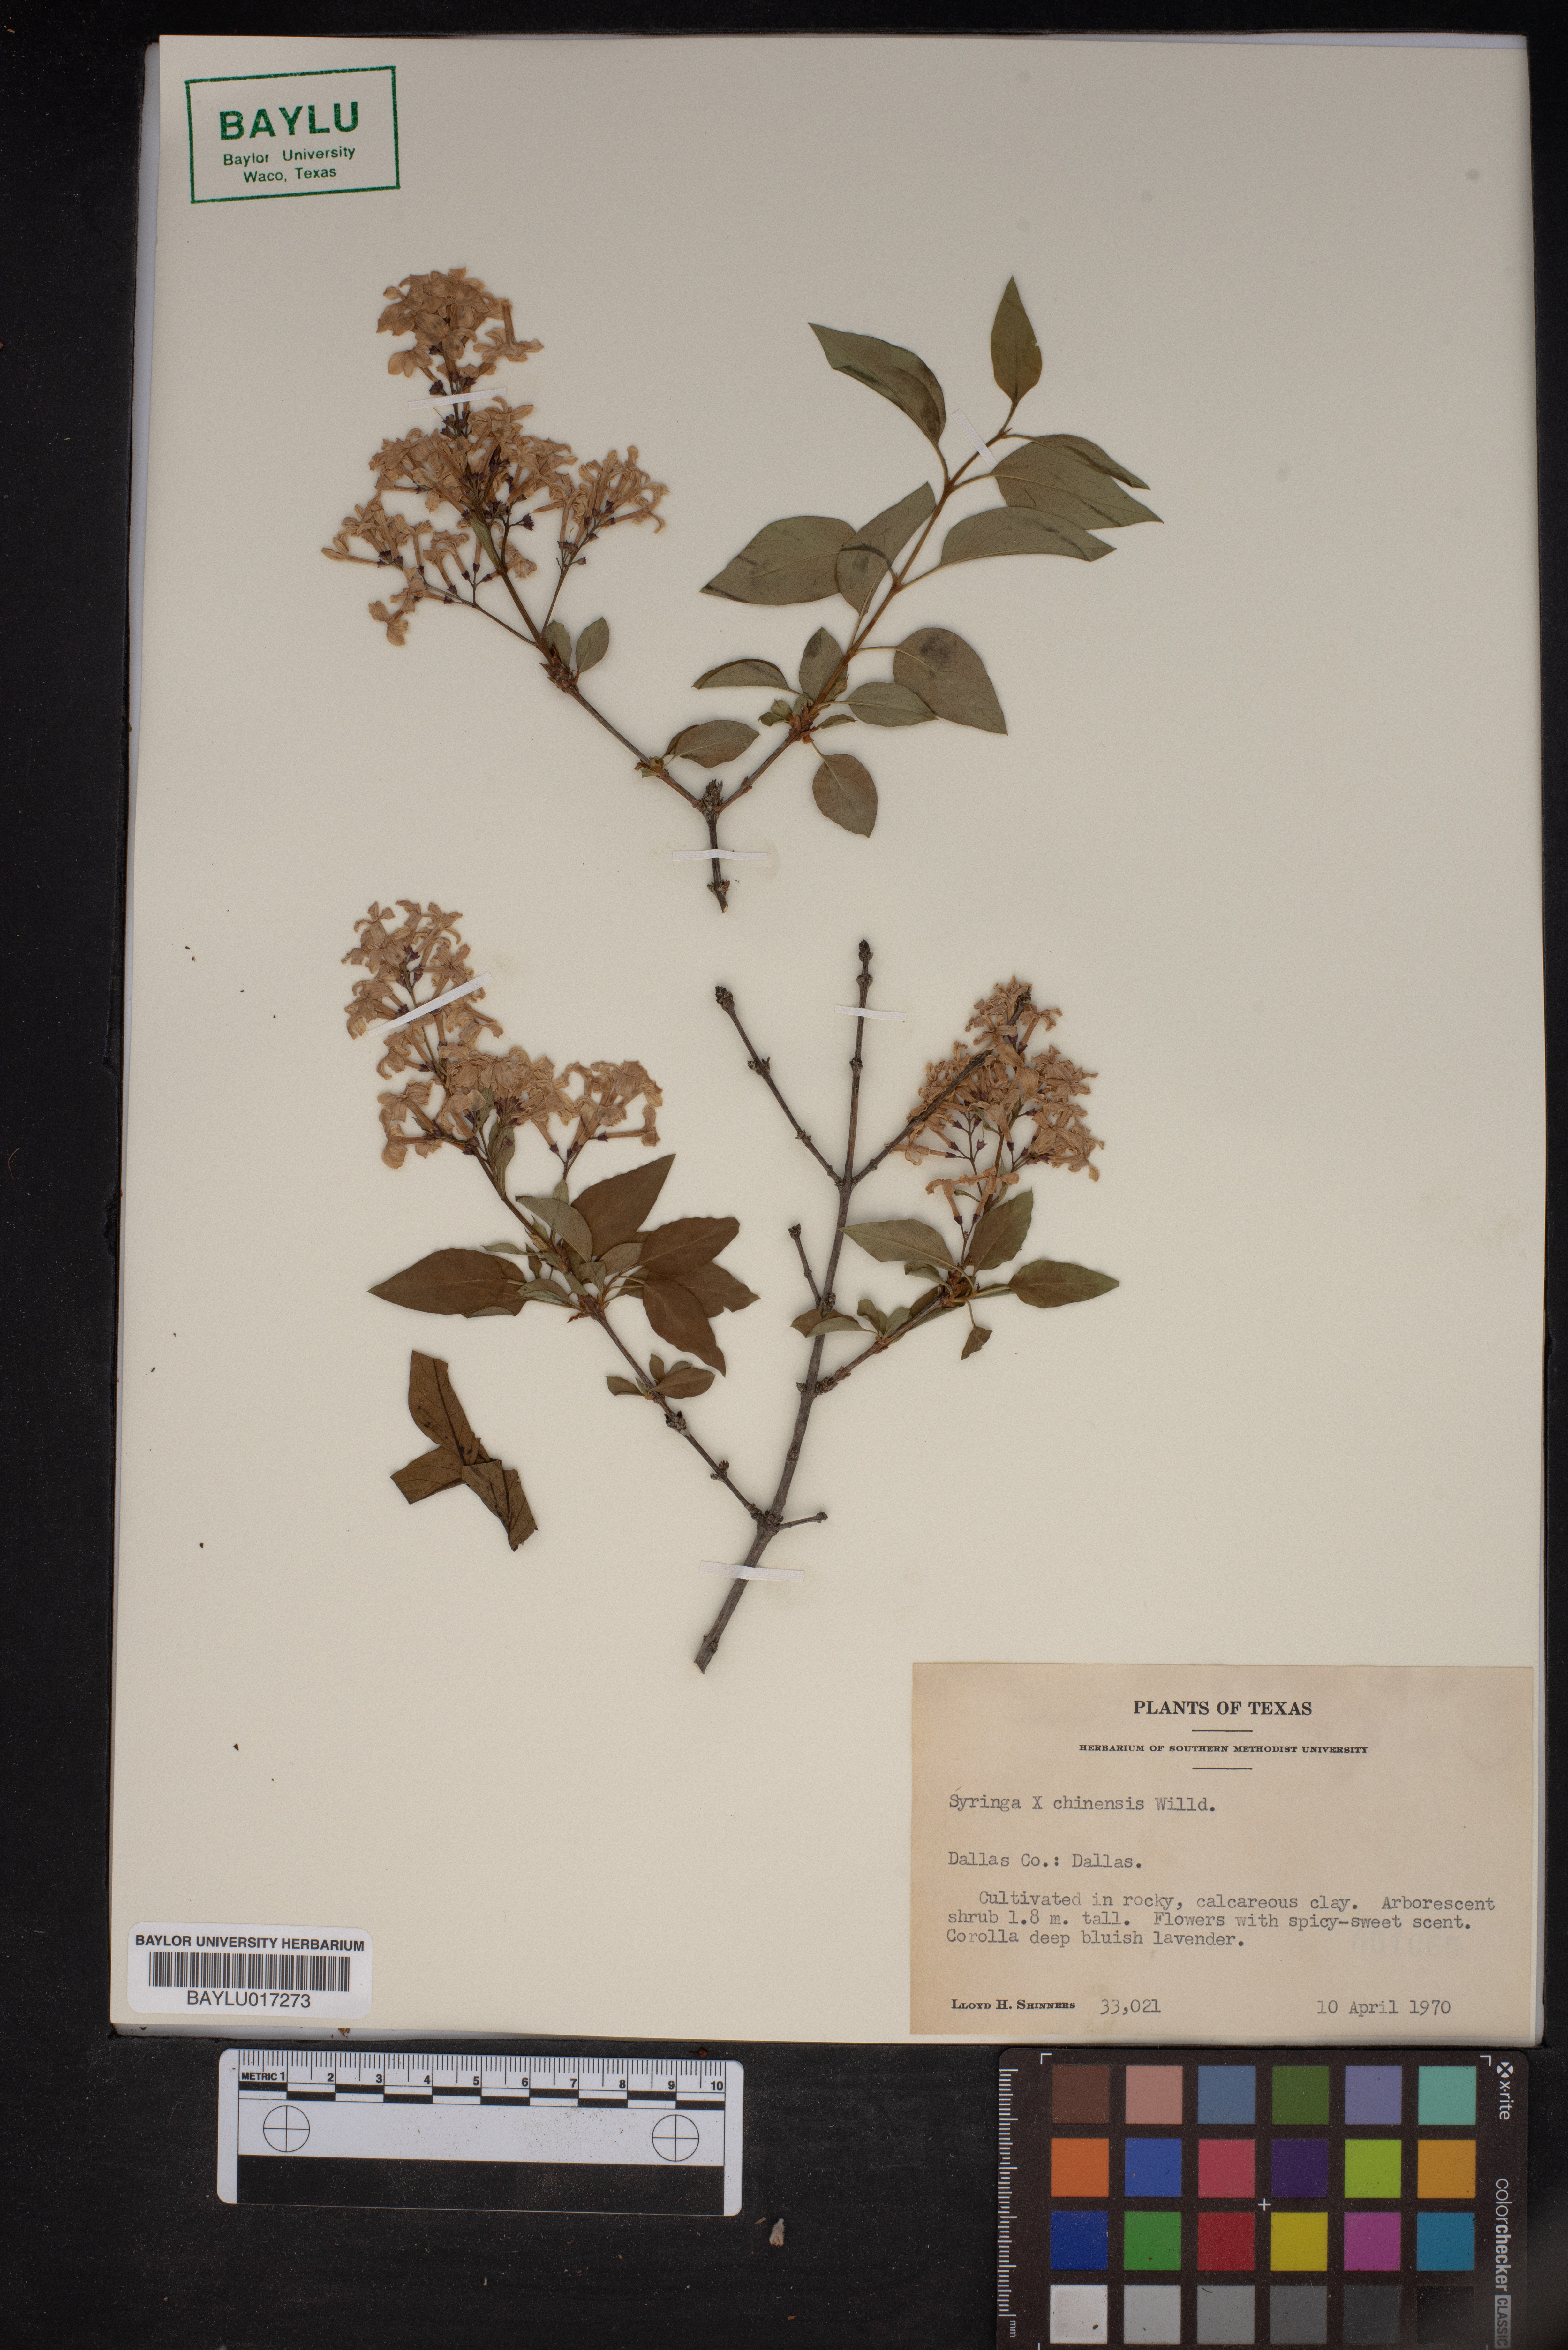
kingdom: Plantae
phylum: Tracheophyta
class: Magnoliopsida
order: Lamiales
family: Oleaceae
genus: Syringa
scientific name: Syringa chinensis
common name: Chinese lilac
